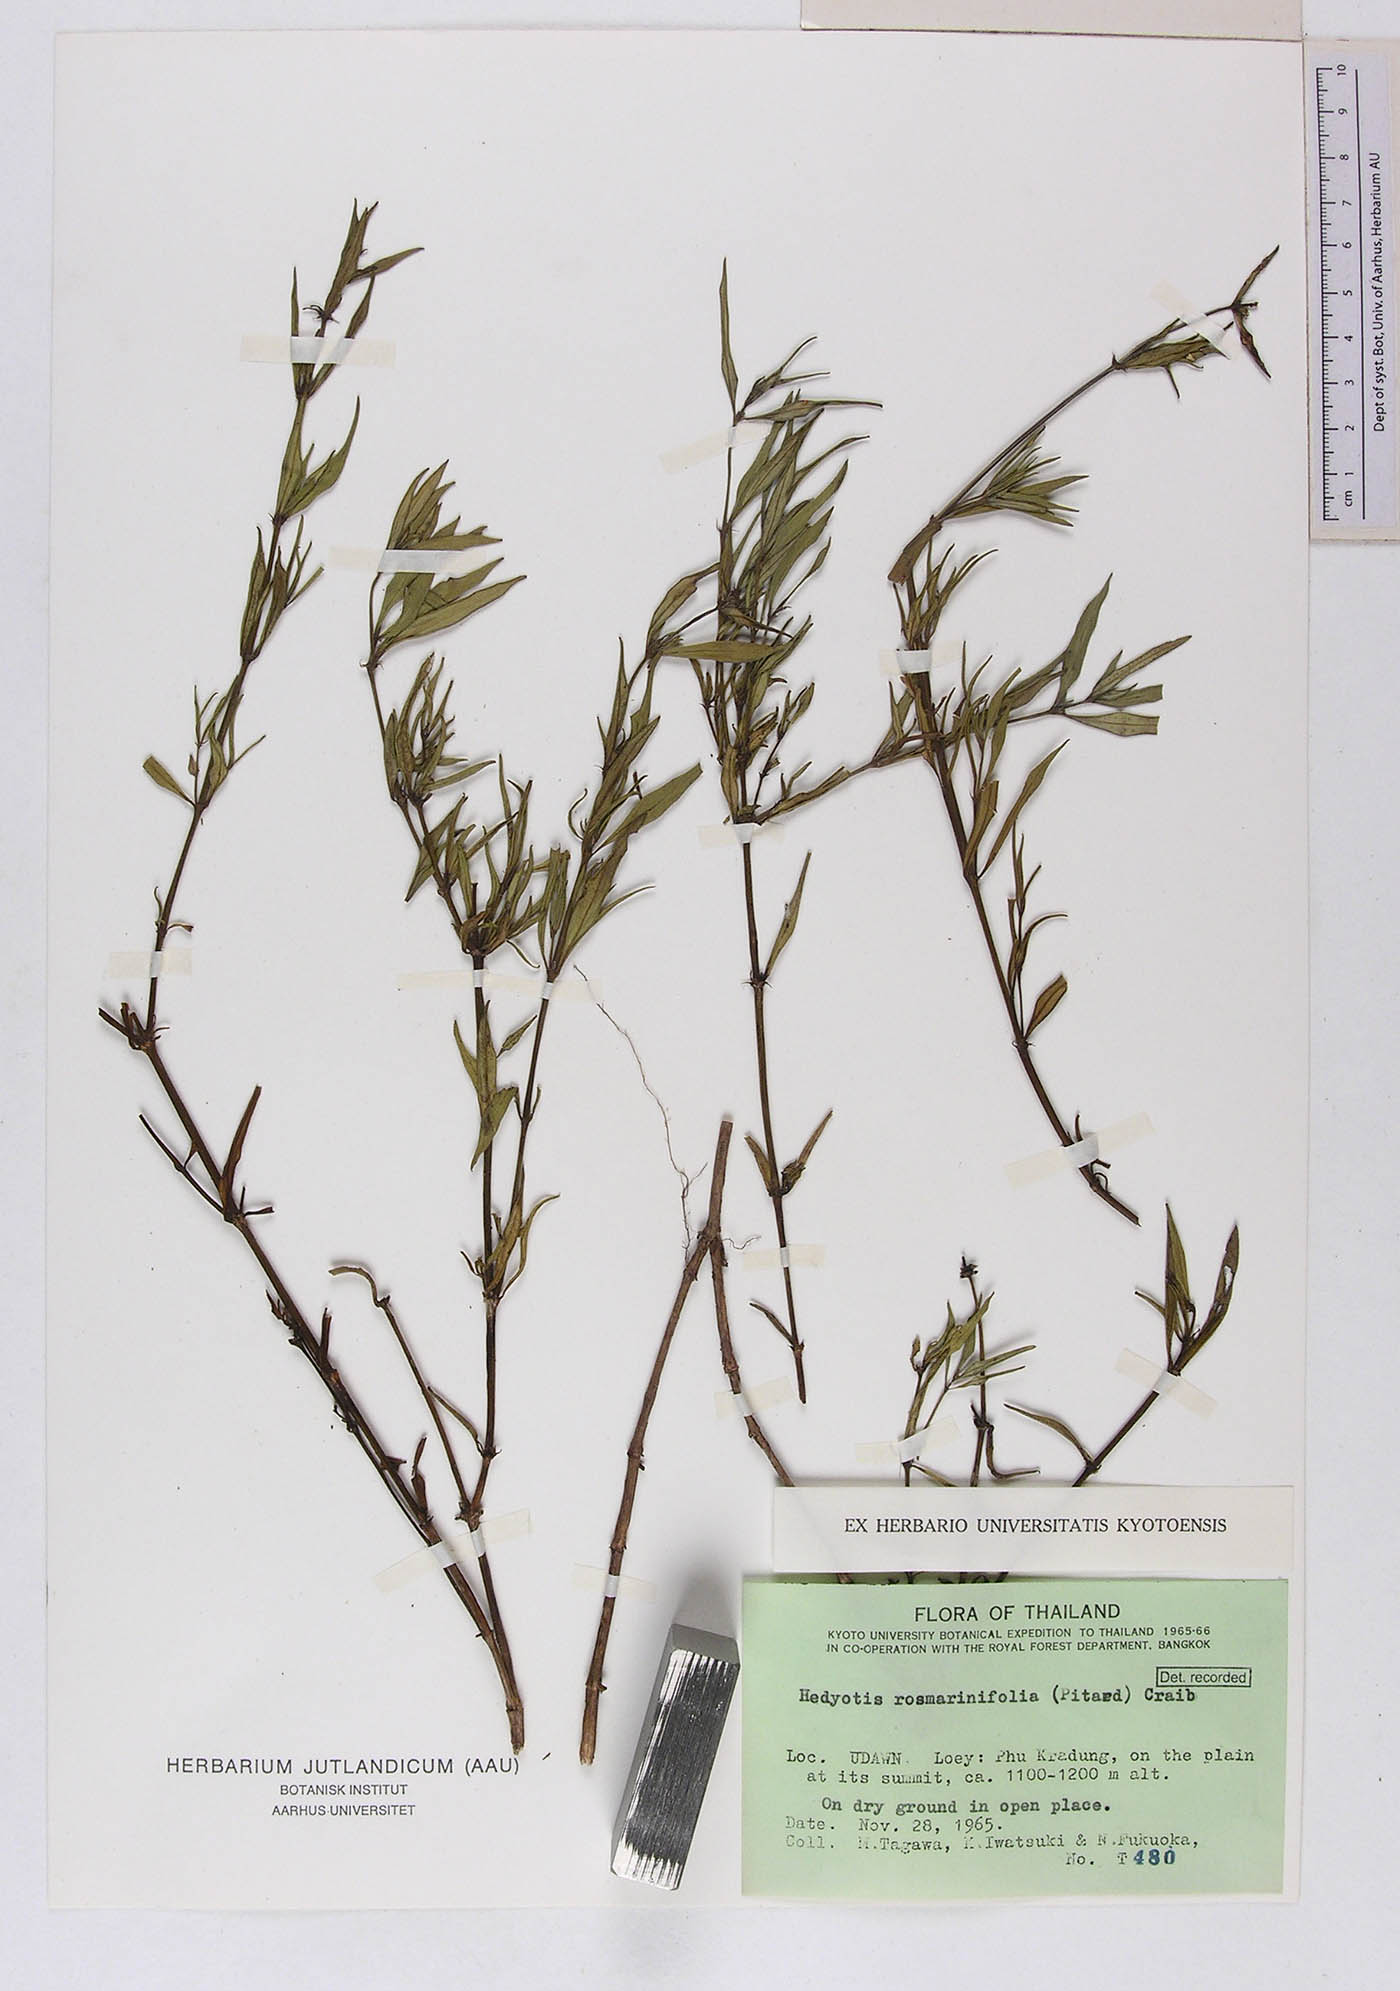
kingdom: Plantae
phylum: Tracheophyta
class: Magnoliopsida
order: Gentianales
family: Rubiaceae
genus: Hedyotis
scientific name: Hedyotis rosmarinifolia
